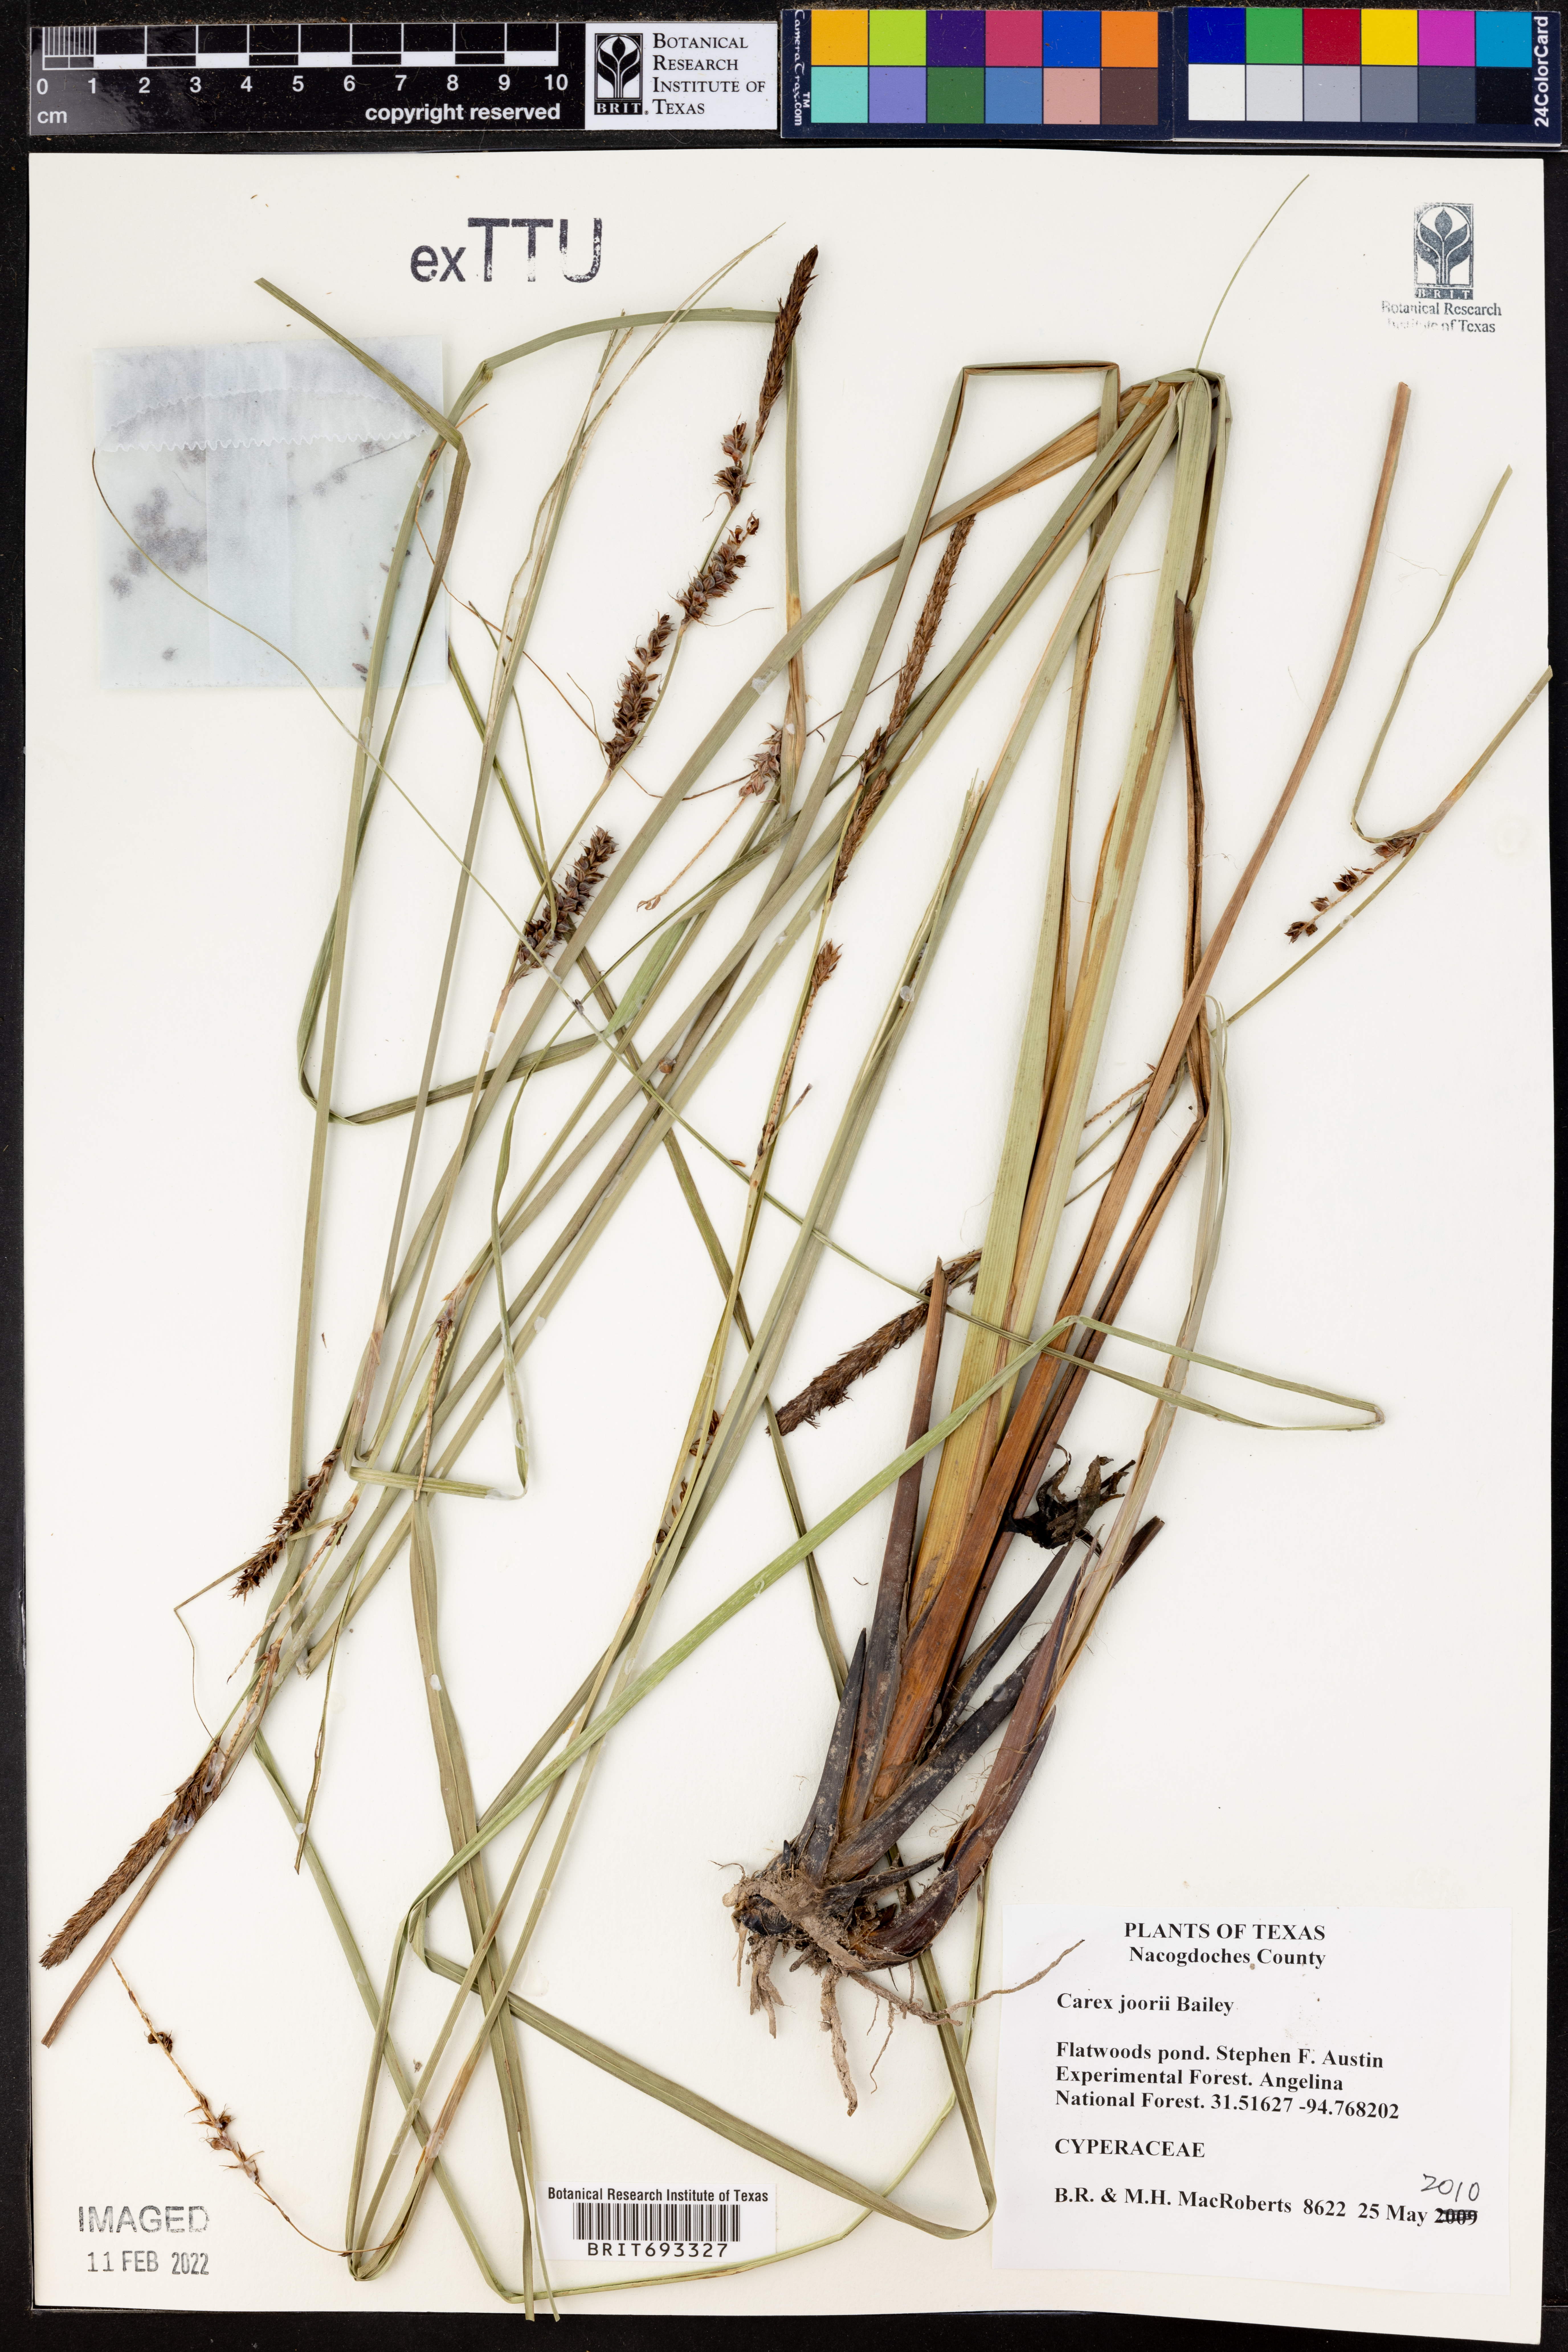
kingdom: Plantae
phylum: Tracheophyta
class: Liliopsida
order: Poales
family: Cyperaceae
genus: Carex
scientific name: Carex joorii
